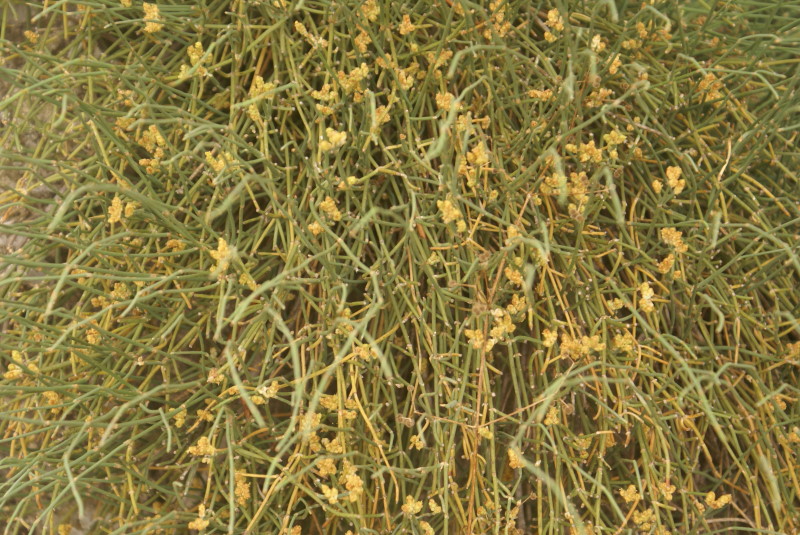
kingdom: Plantae
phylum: Tracheophyta
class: Gnetopsida
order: Ephedrales
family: Ephedraceae
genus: Ephedra
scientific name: Ephedra distachya
